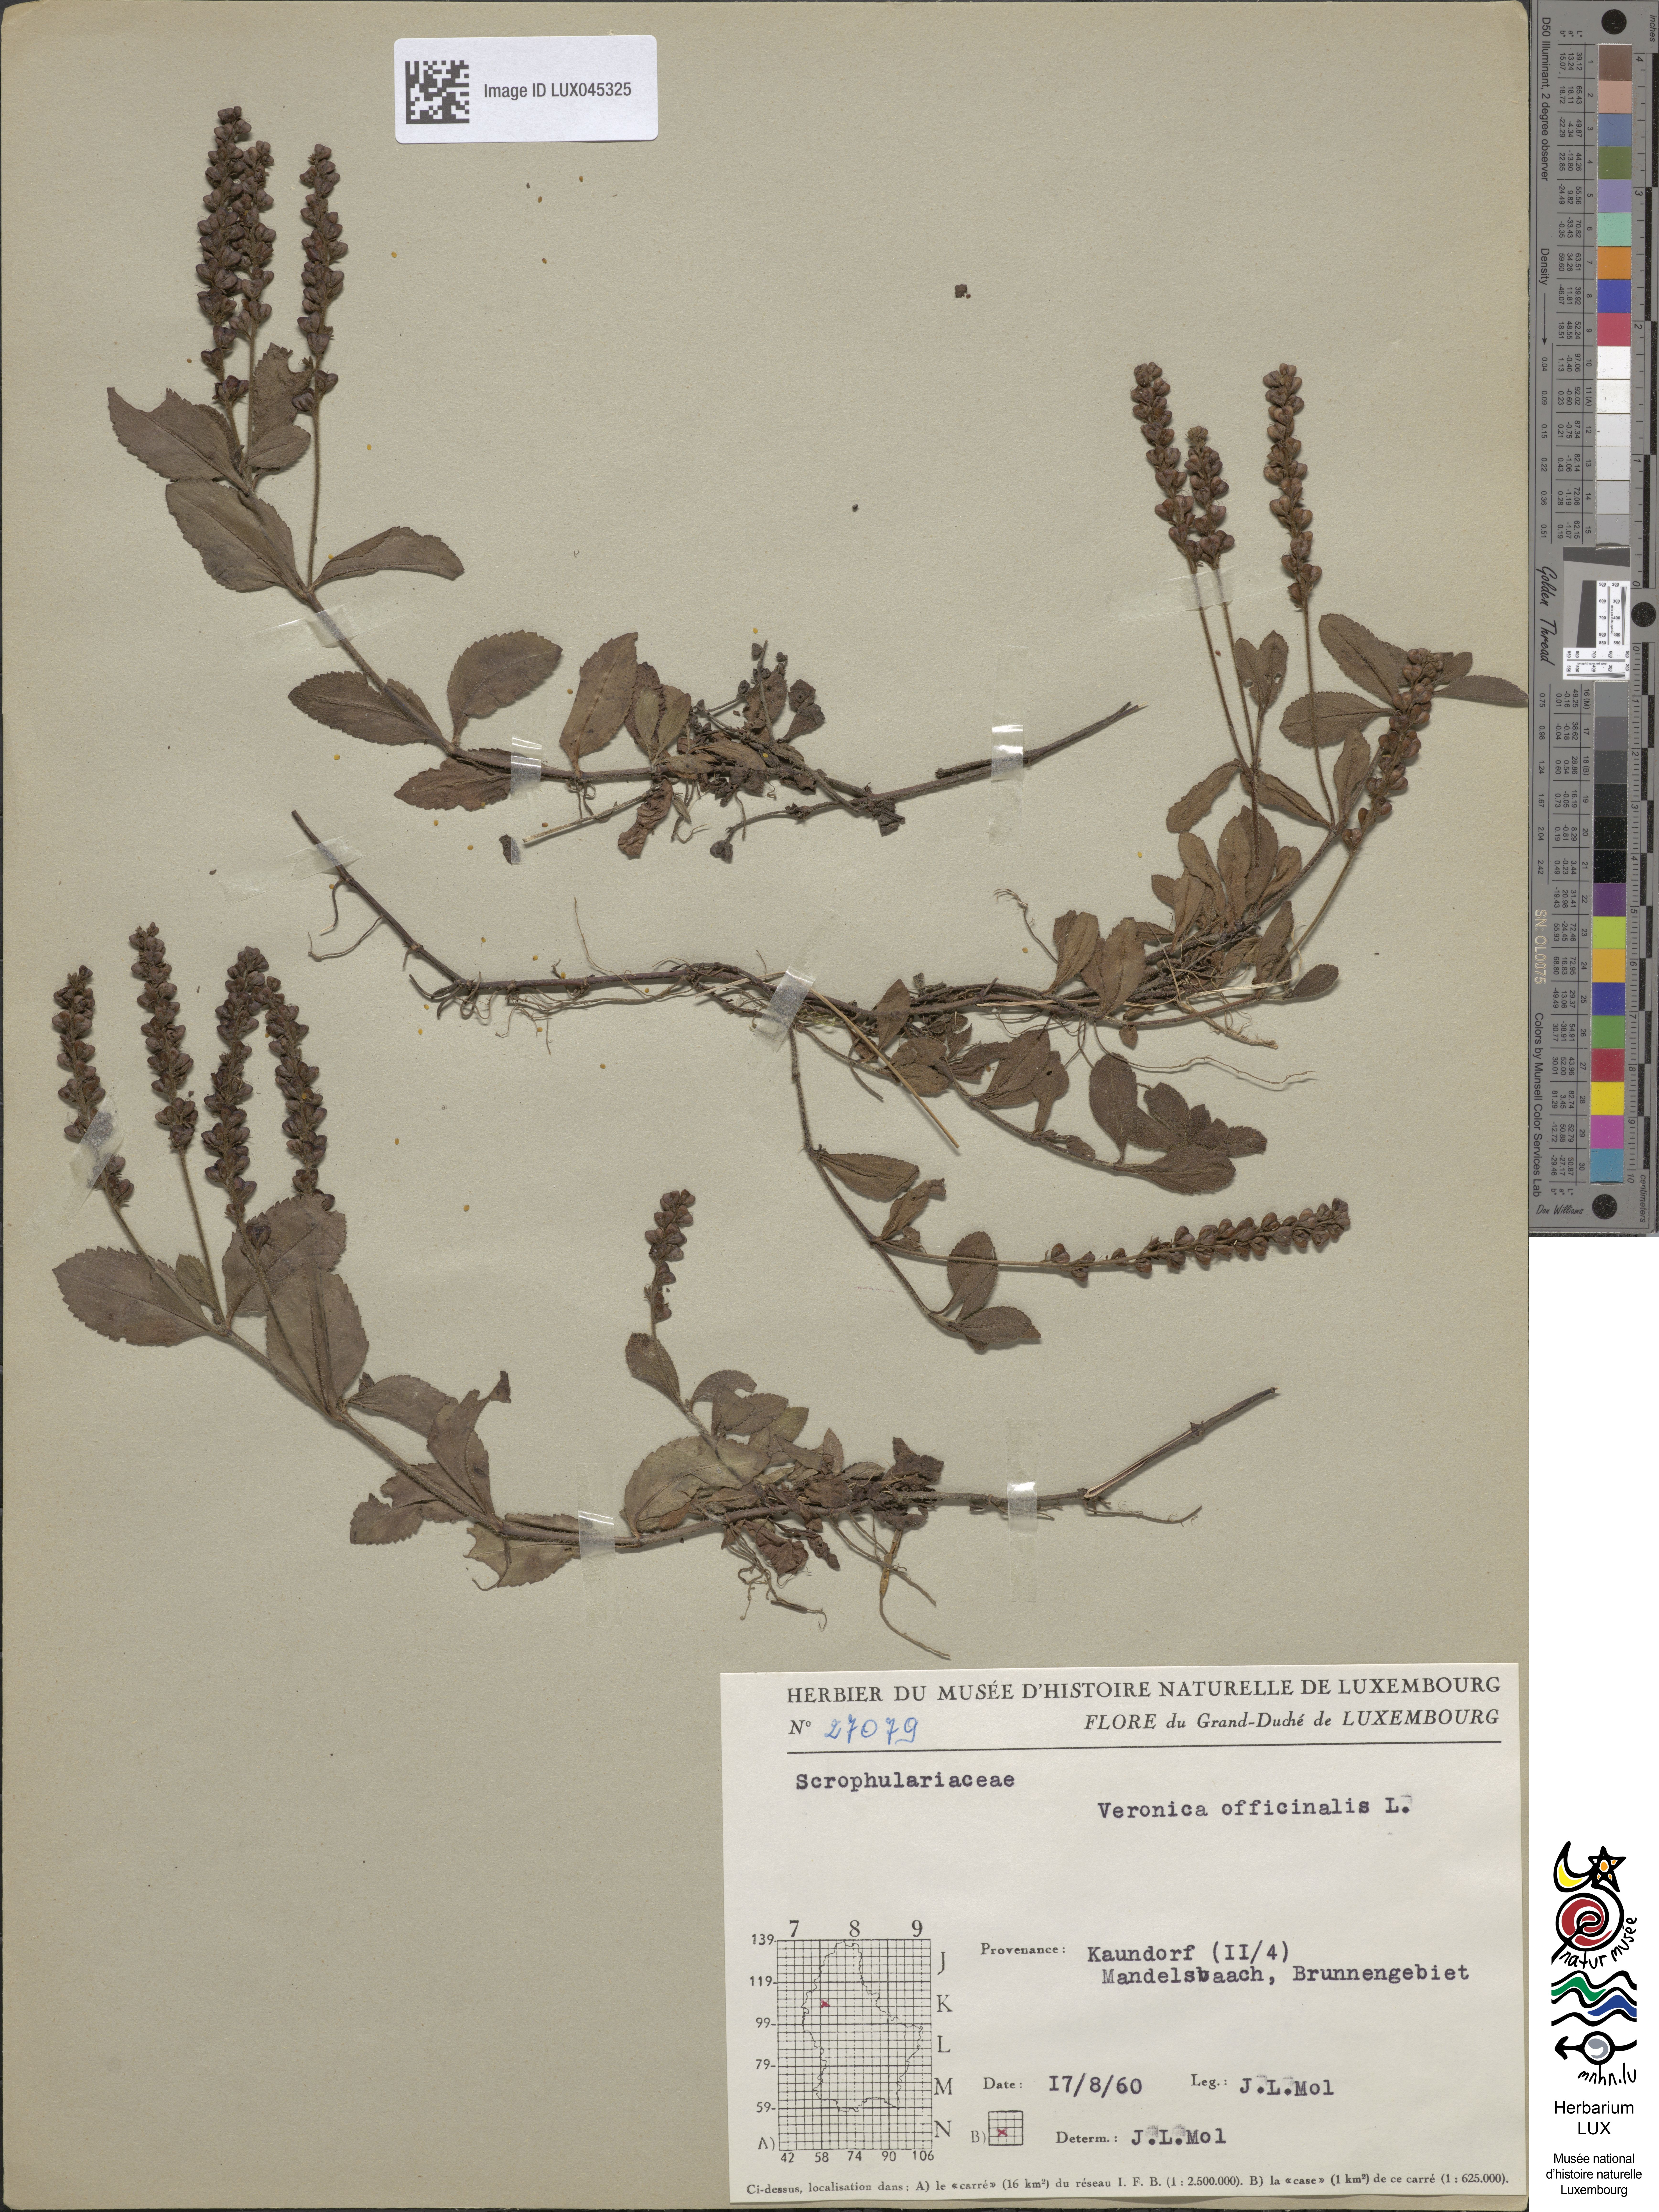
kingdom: Plantae
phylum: Tracheophyta
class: Magnoliopsida
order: Lamiales
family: Plantaginaceae
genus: Veronica
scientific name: Veronica officinalis
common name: Common speedwell
